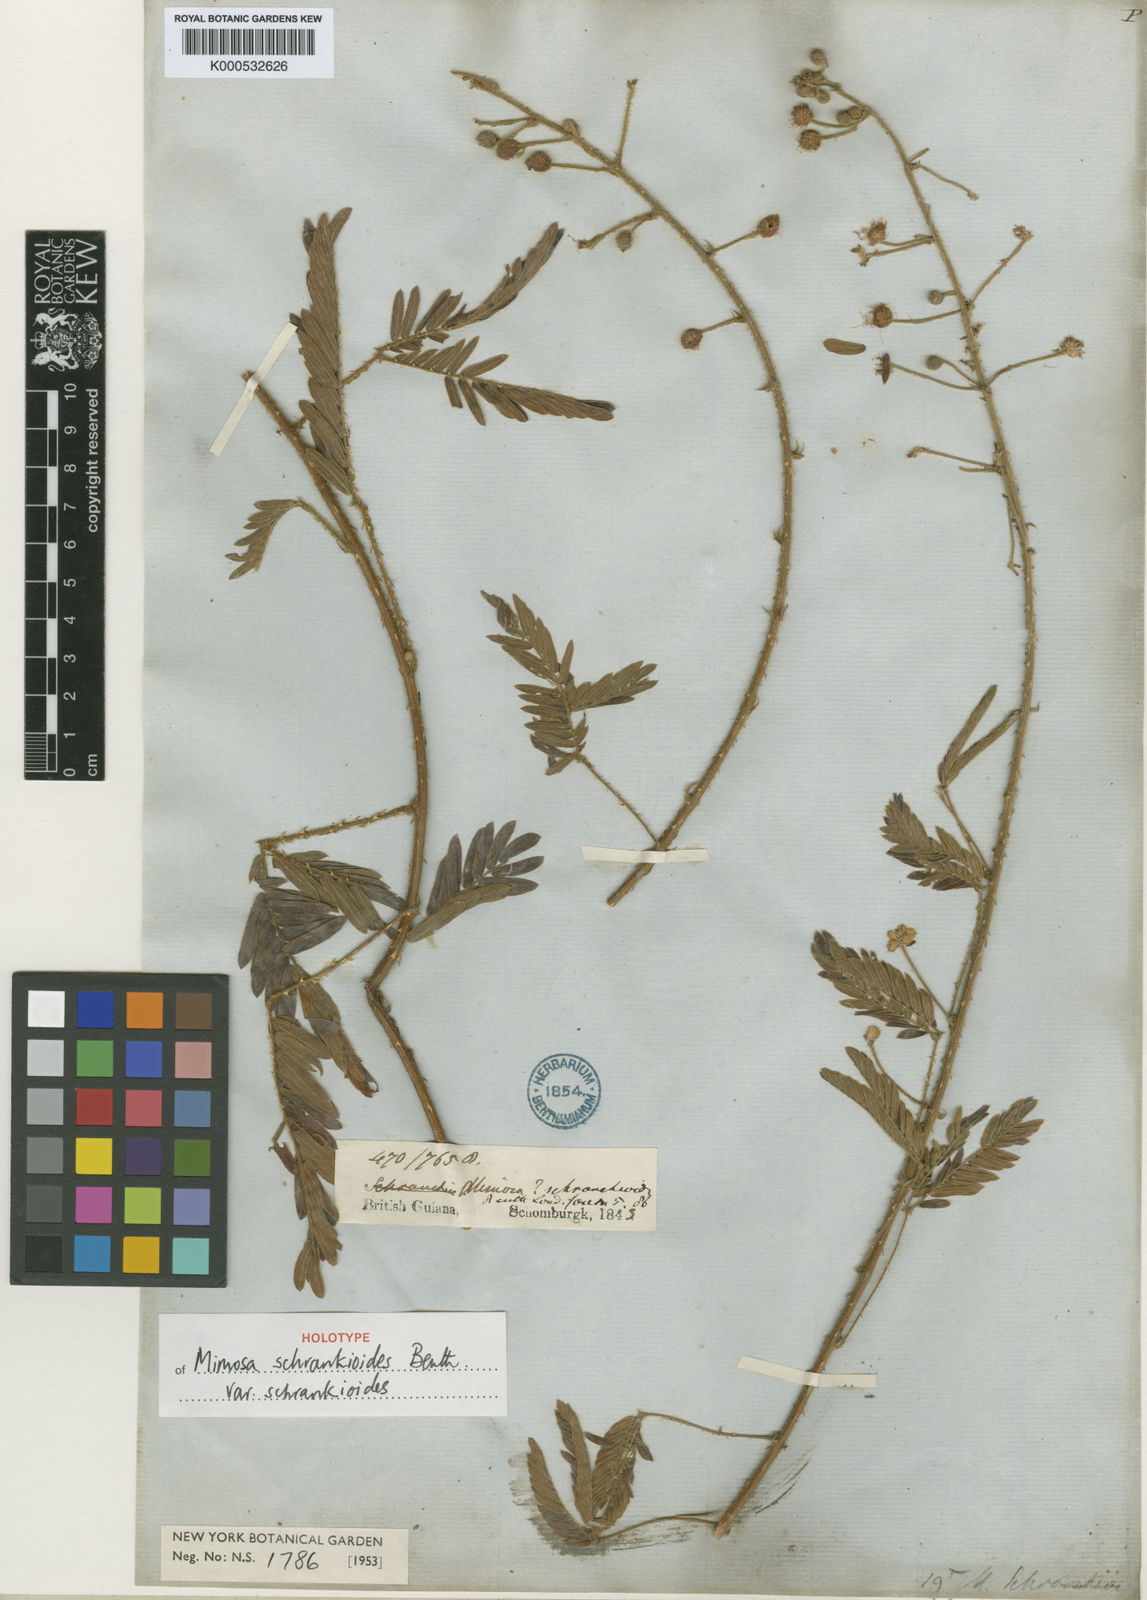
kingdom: Plantae
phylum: Tracheophyta
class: Magnoliopsida
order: Fabales
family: Fabaceae
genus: Mimosa
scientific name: Mimosa schrankioides
